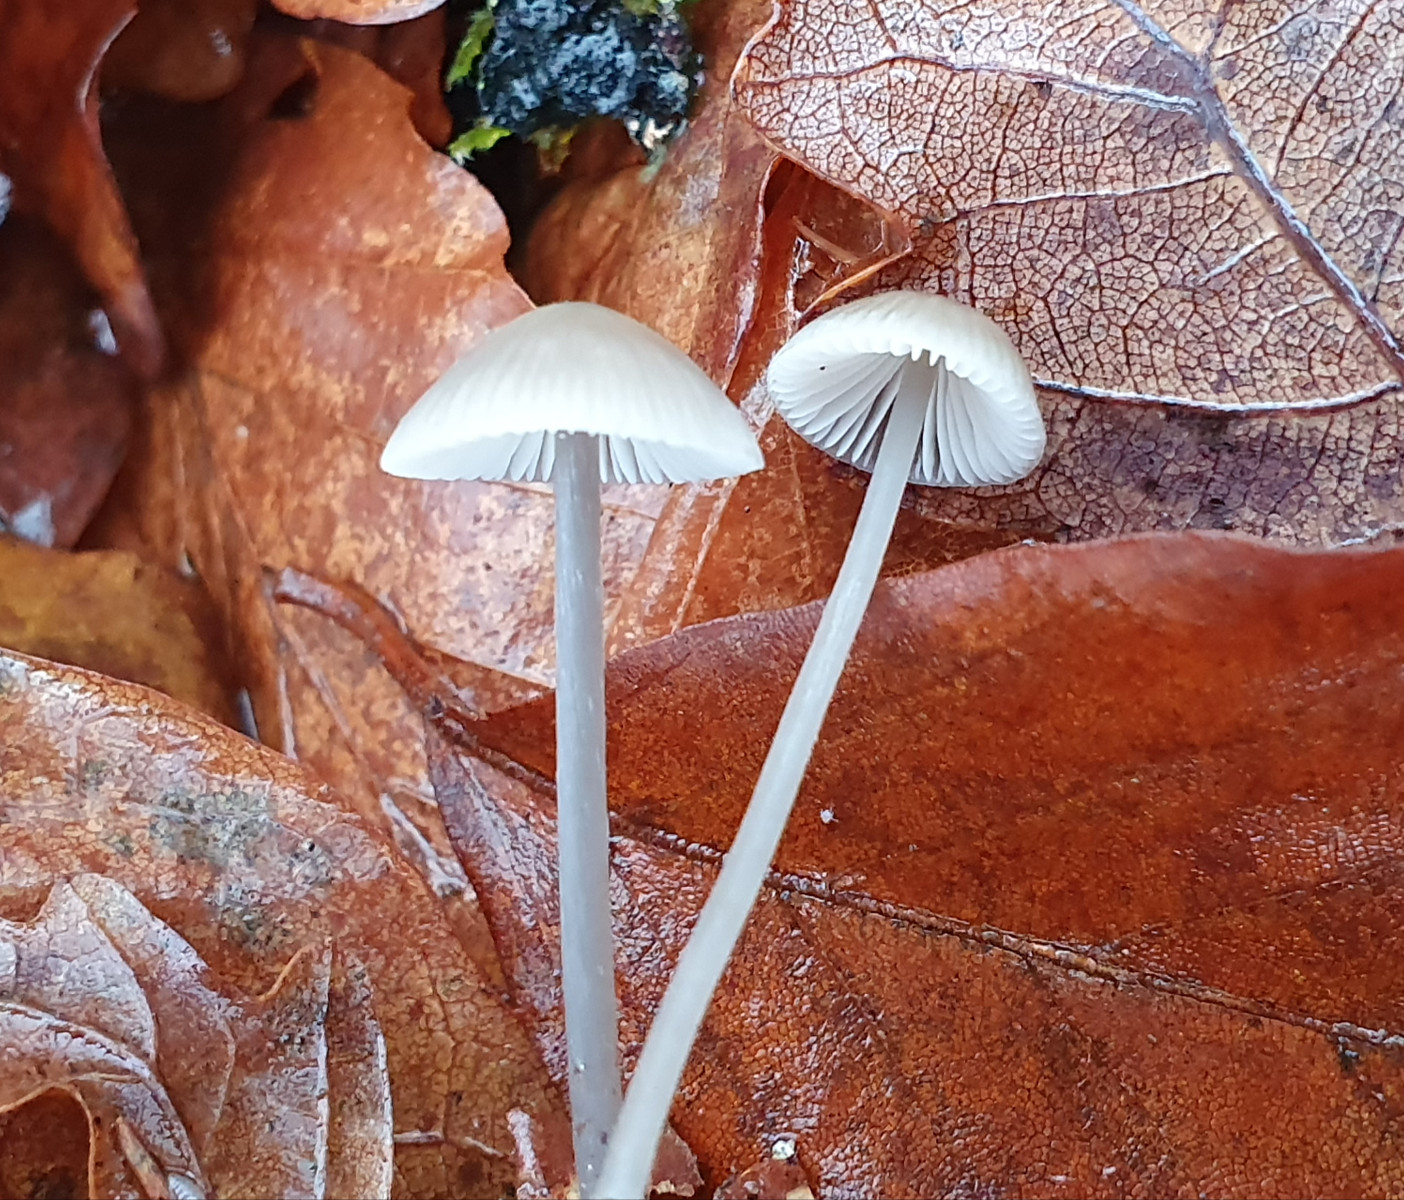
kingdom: Fungi
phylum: Basidiomycota
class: Agaricomycetes
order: Agaricales
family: Mycenaceae
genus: Mycena
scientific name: Mycena vitilis
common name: blankstokket huesvamp
